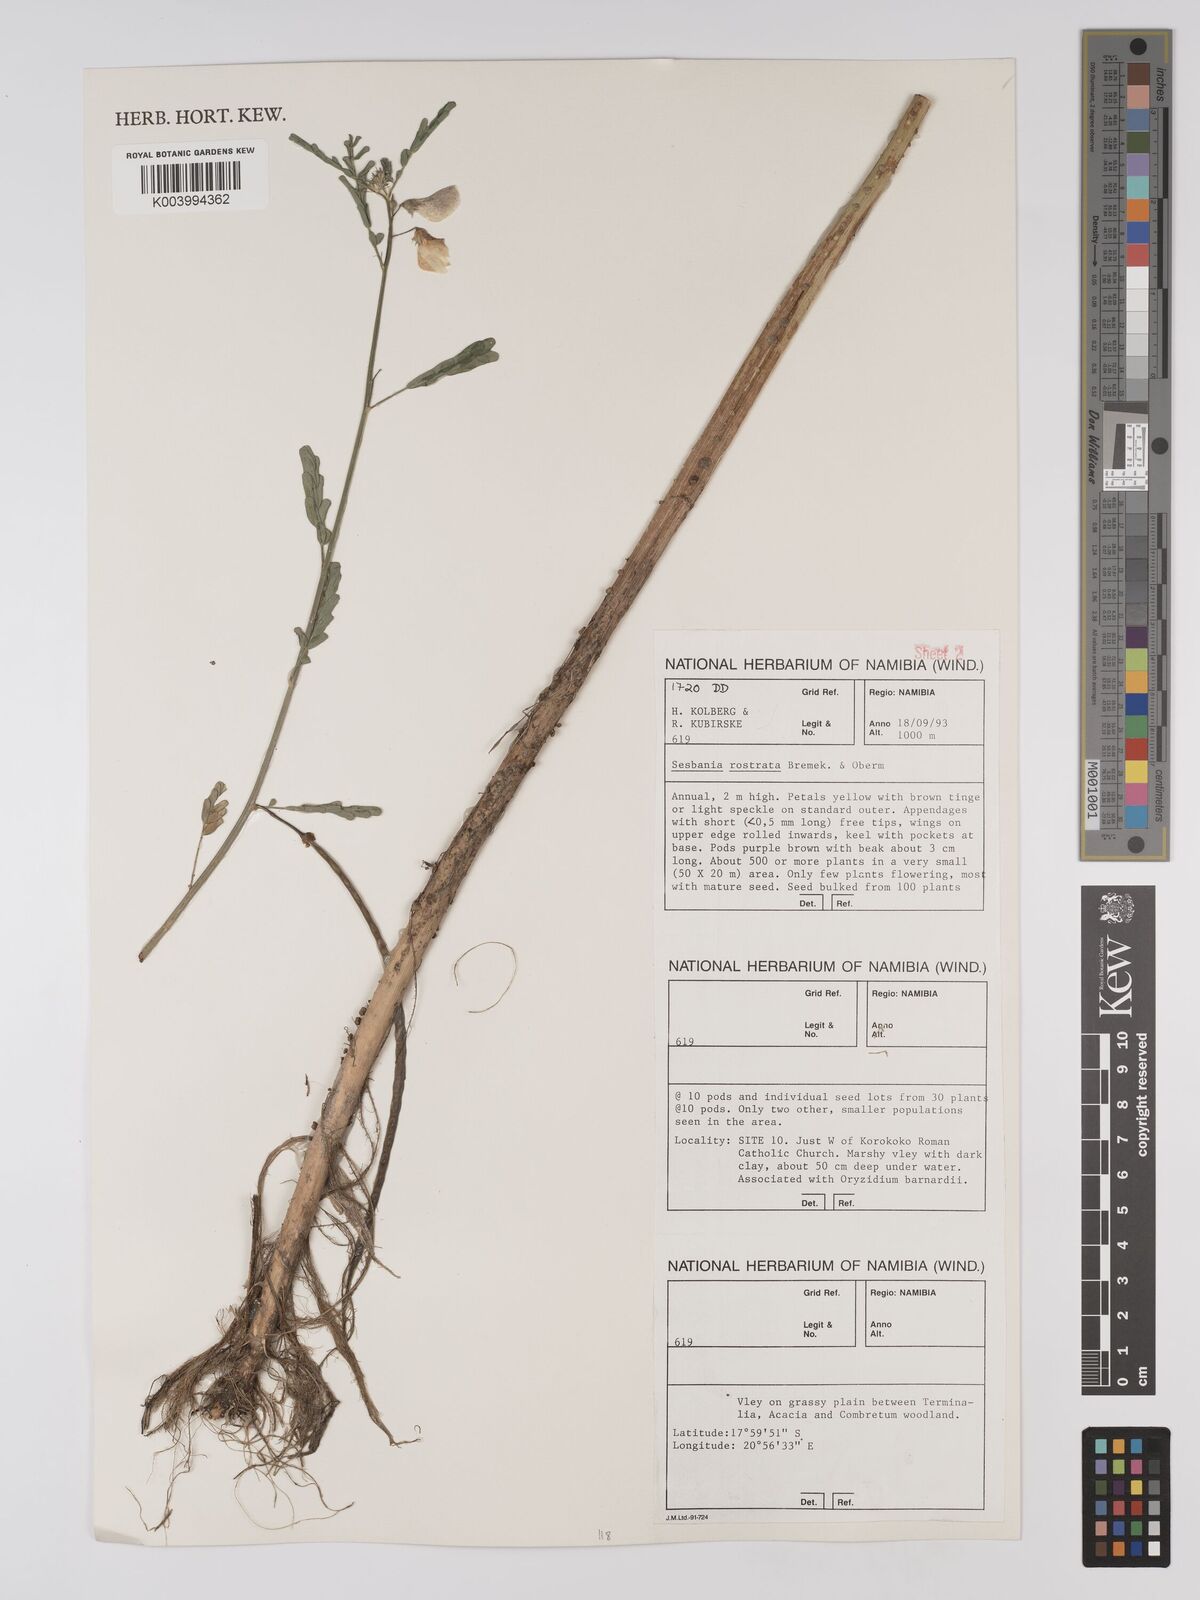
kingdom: Plantae
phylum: Tracheophyta
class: Magnoliopsida
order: Fabales
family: Fabaceae
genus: Sesbania
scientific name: Sesbania rostrata
